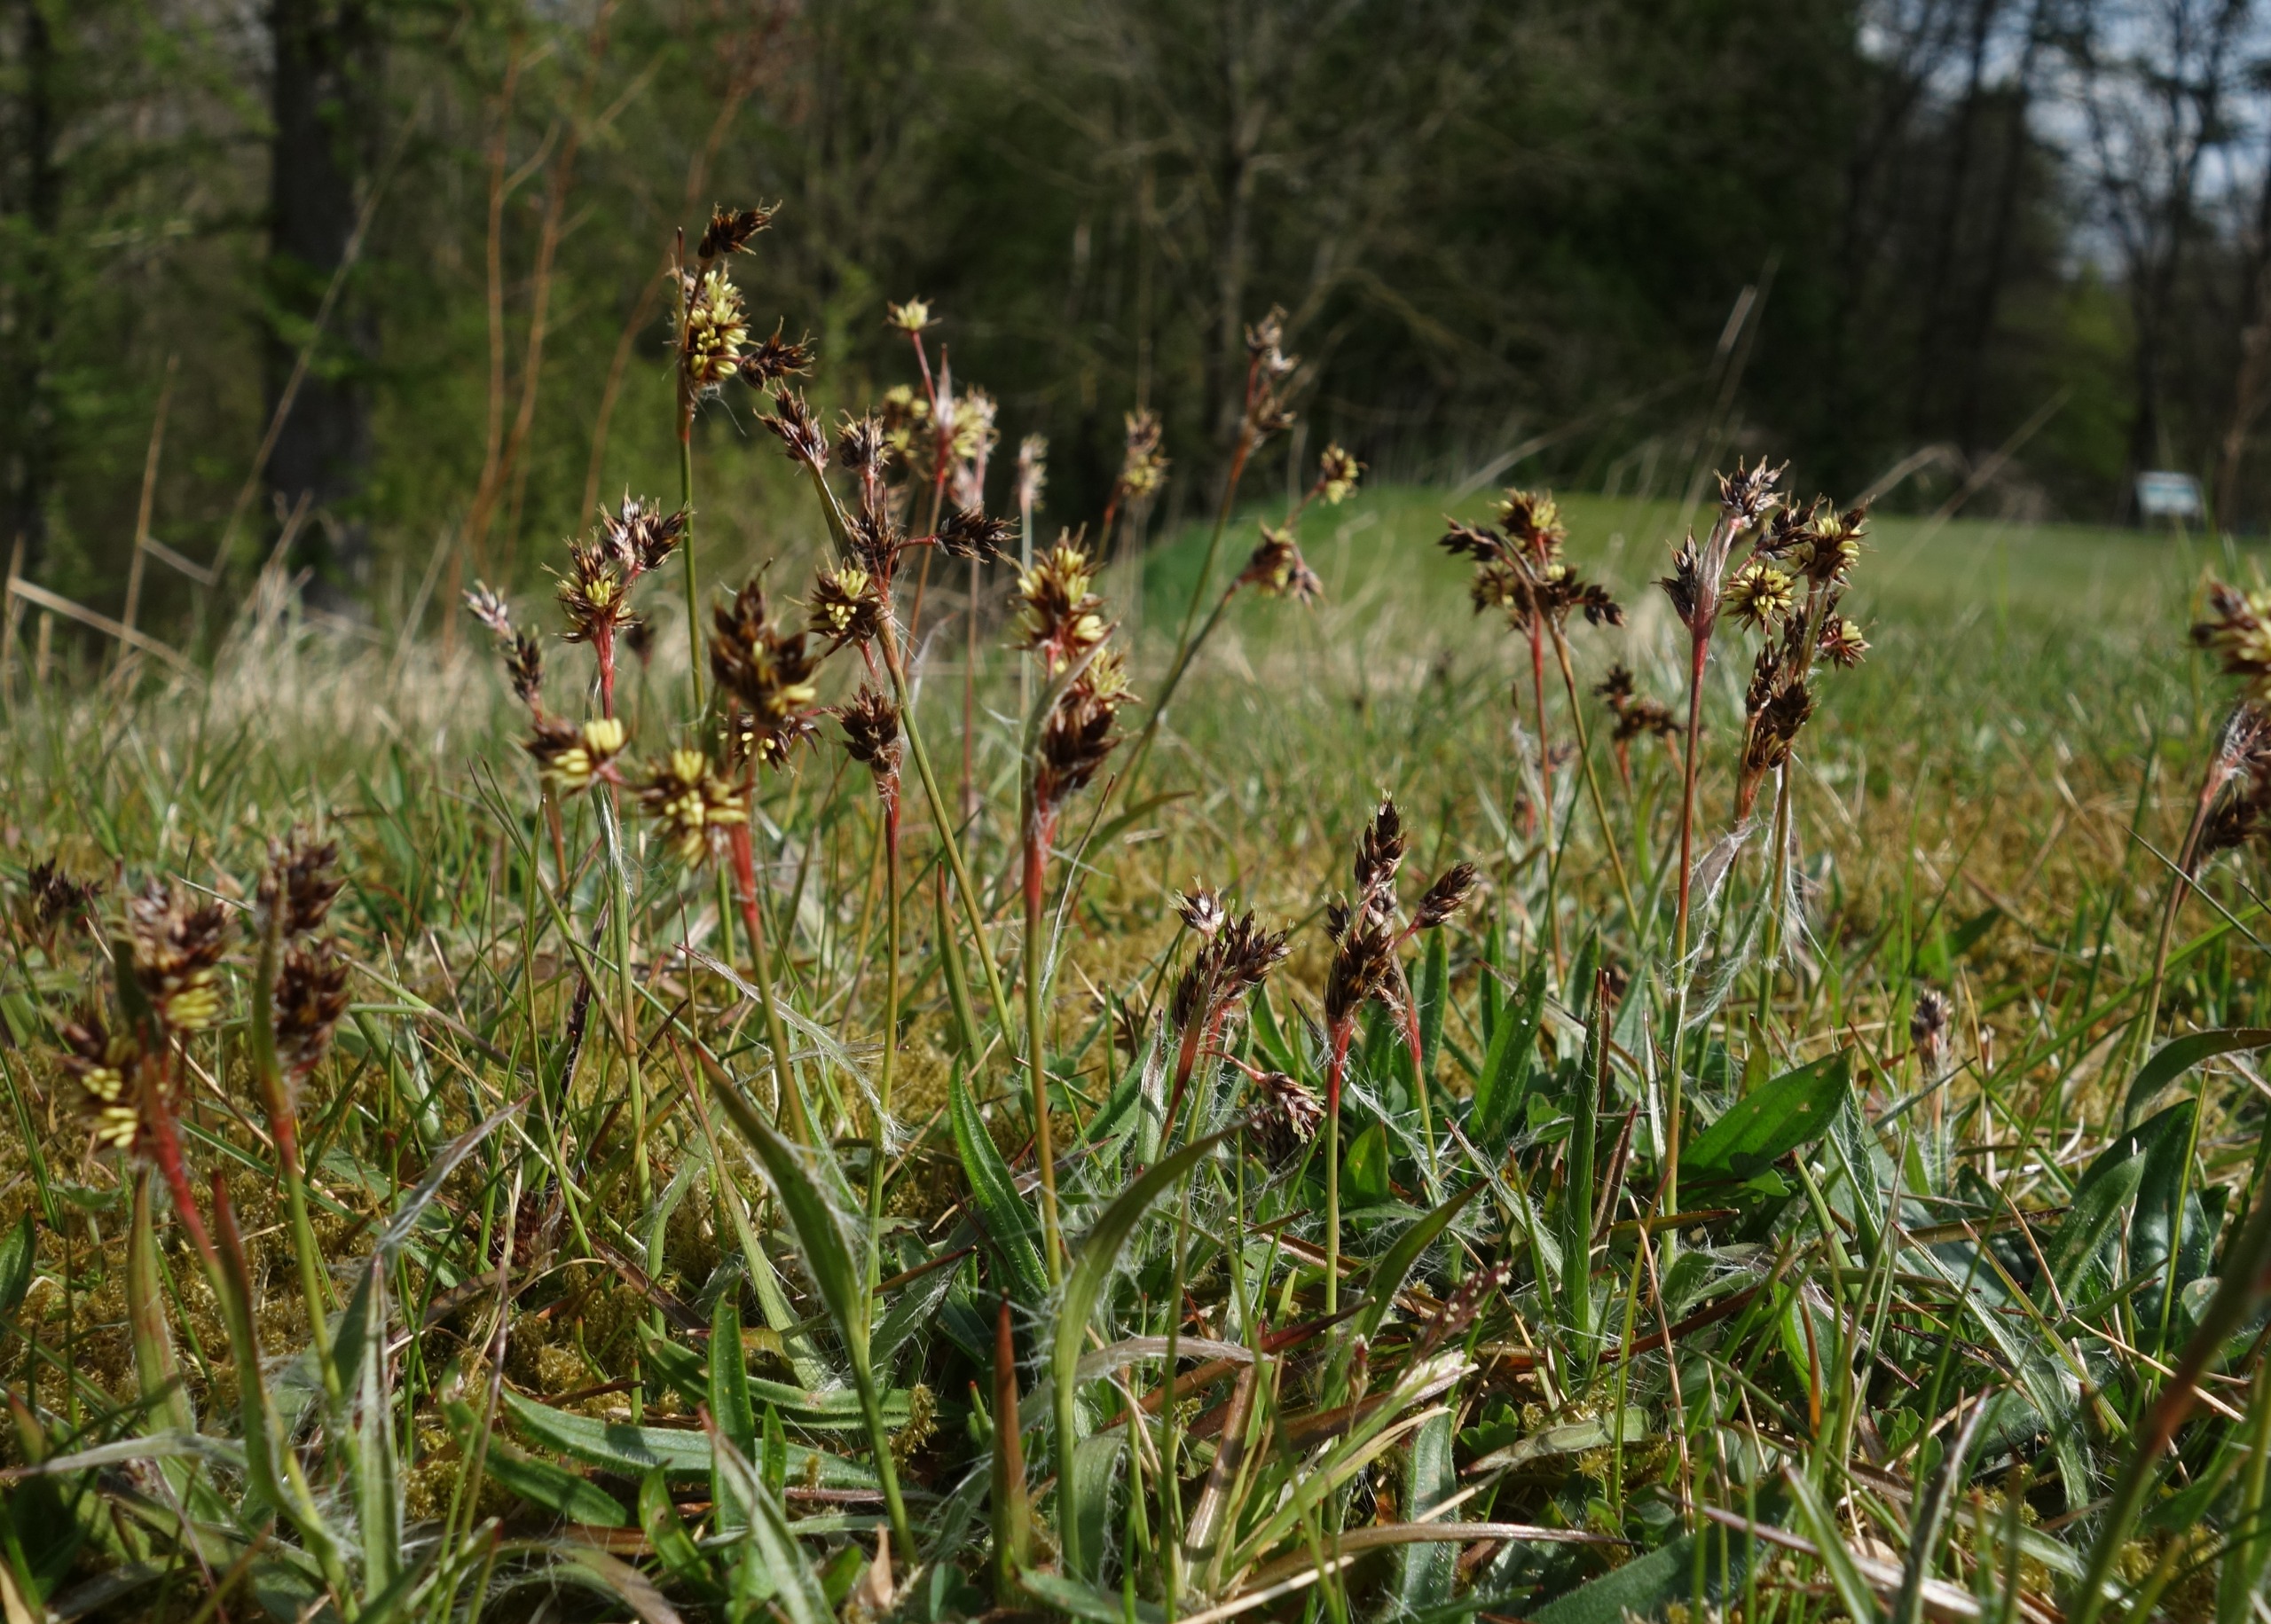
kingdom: Plantae
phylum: Tracheophyta
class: Liliopsida
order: Poales
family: Juncaceae
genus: Luzula
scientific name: Luzula campestris
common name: Mark-frytle
